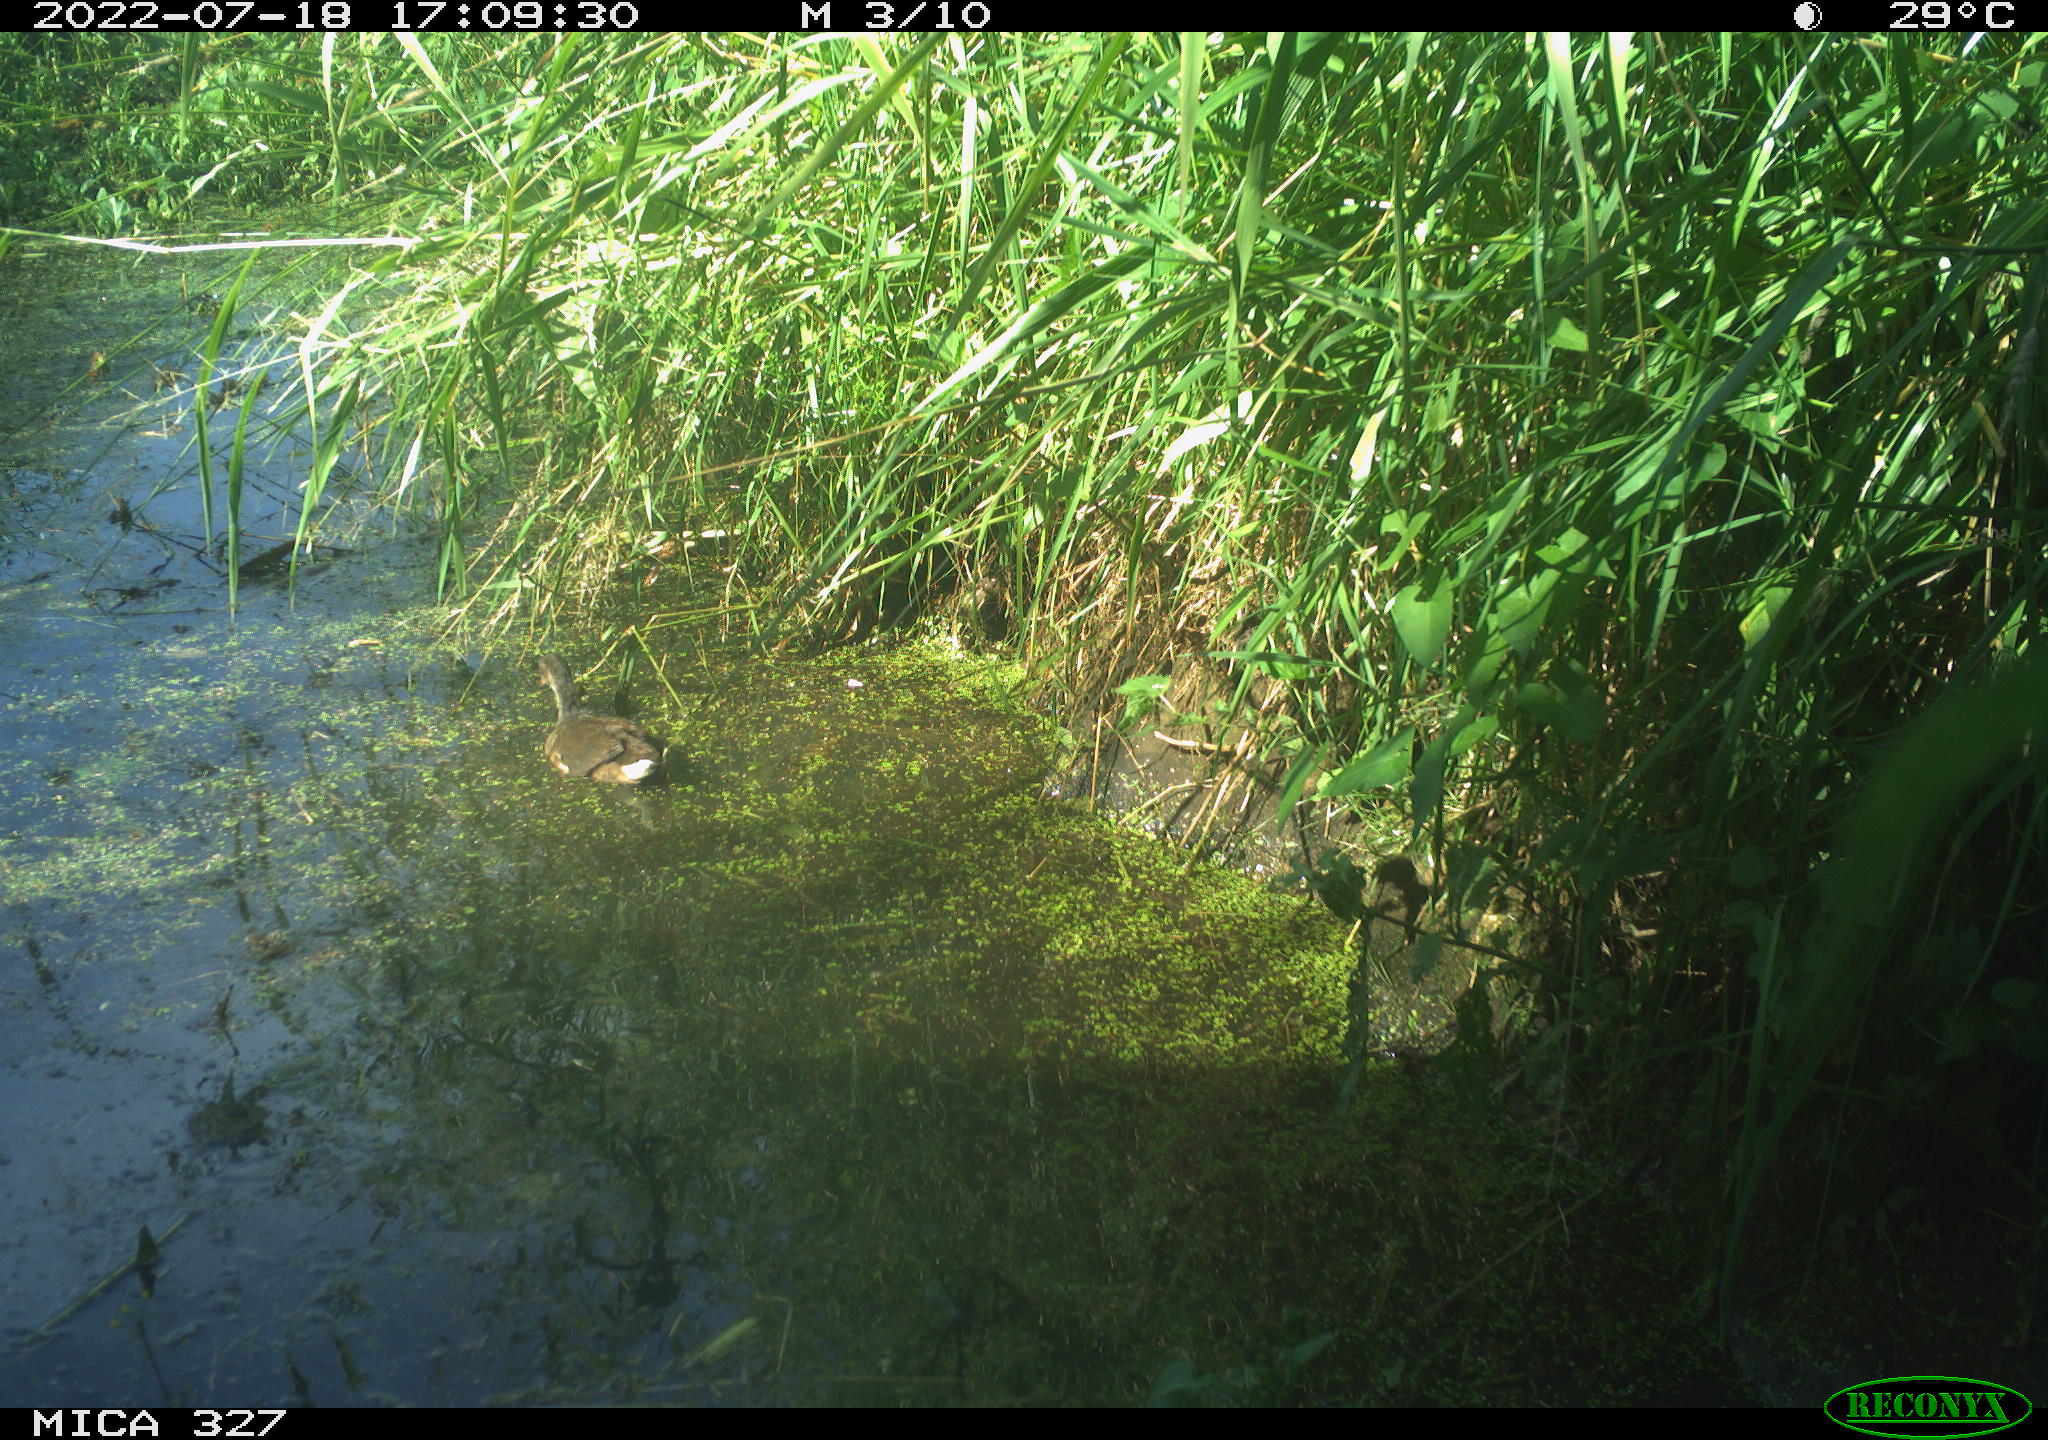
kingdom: Animalia
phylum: Chordata
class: Aves
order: Gruiformes
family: Rallidae
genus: Gallinula
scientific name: Gallinula chloropus
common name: Common moorhen
